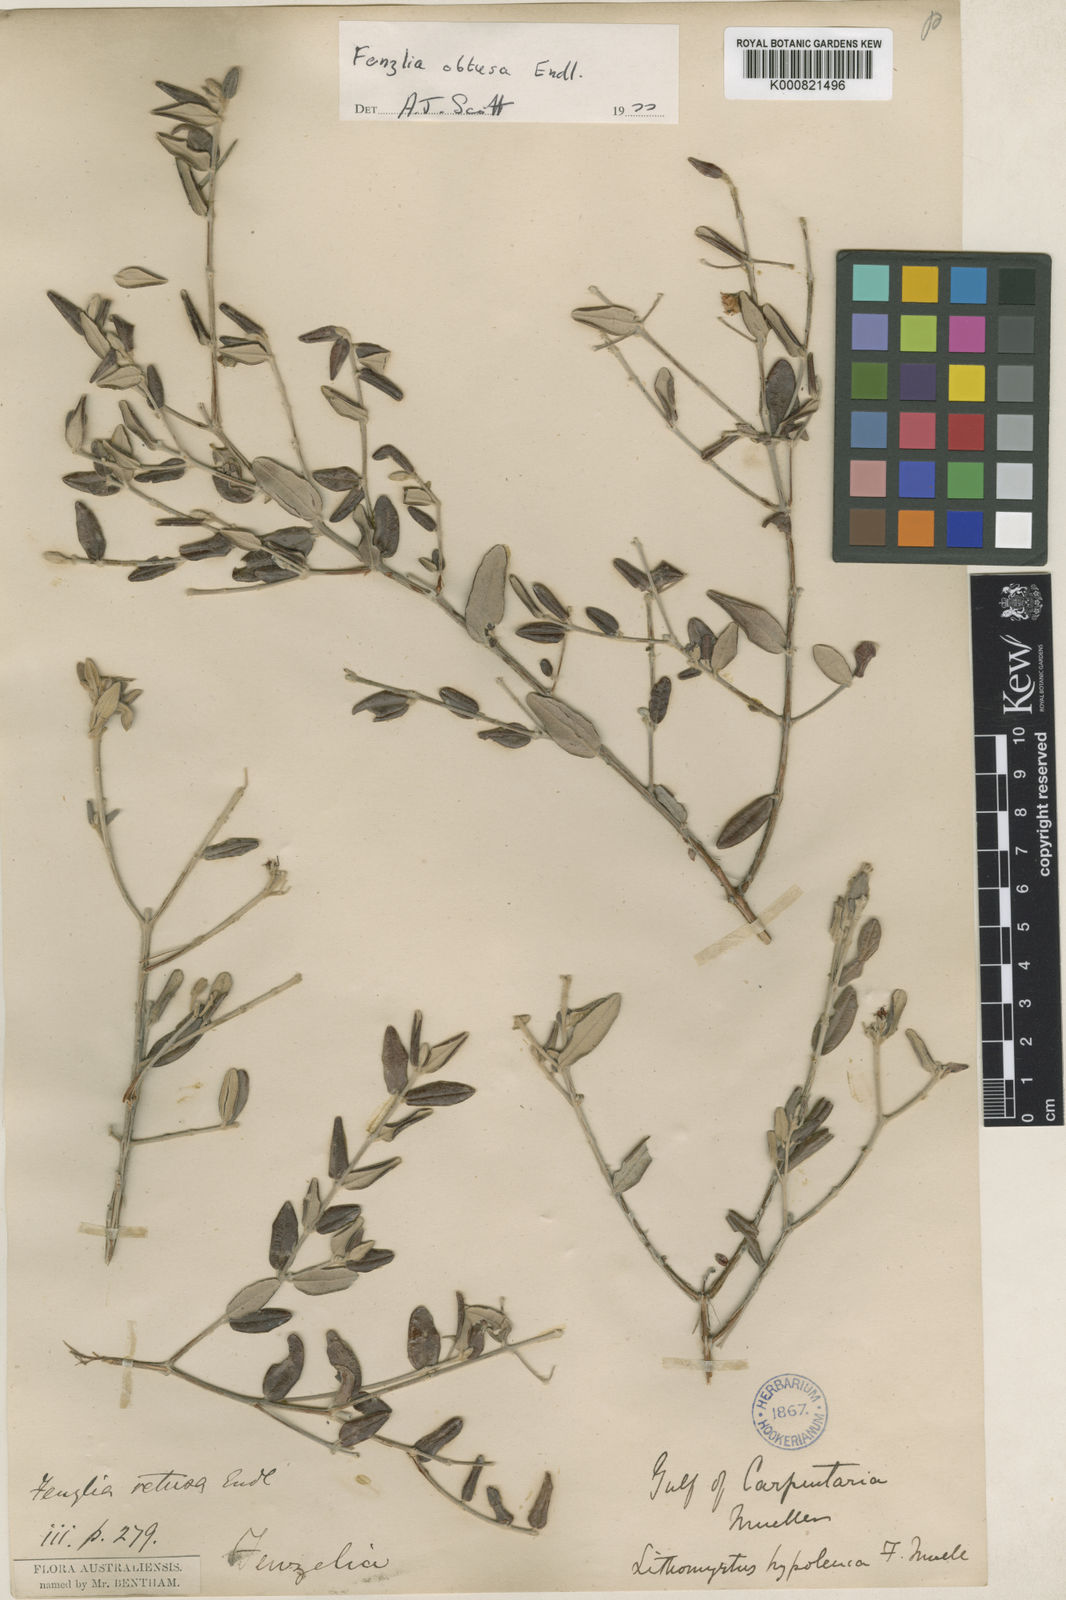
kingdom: Plantae
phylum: Tracheophyta
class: Magnoliopsida
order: Myrtales
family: Myrtaceae
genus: Lithomyrtus
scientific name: Lithomyrtus hypoleuca
